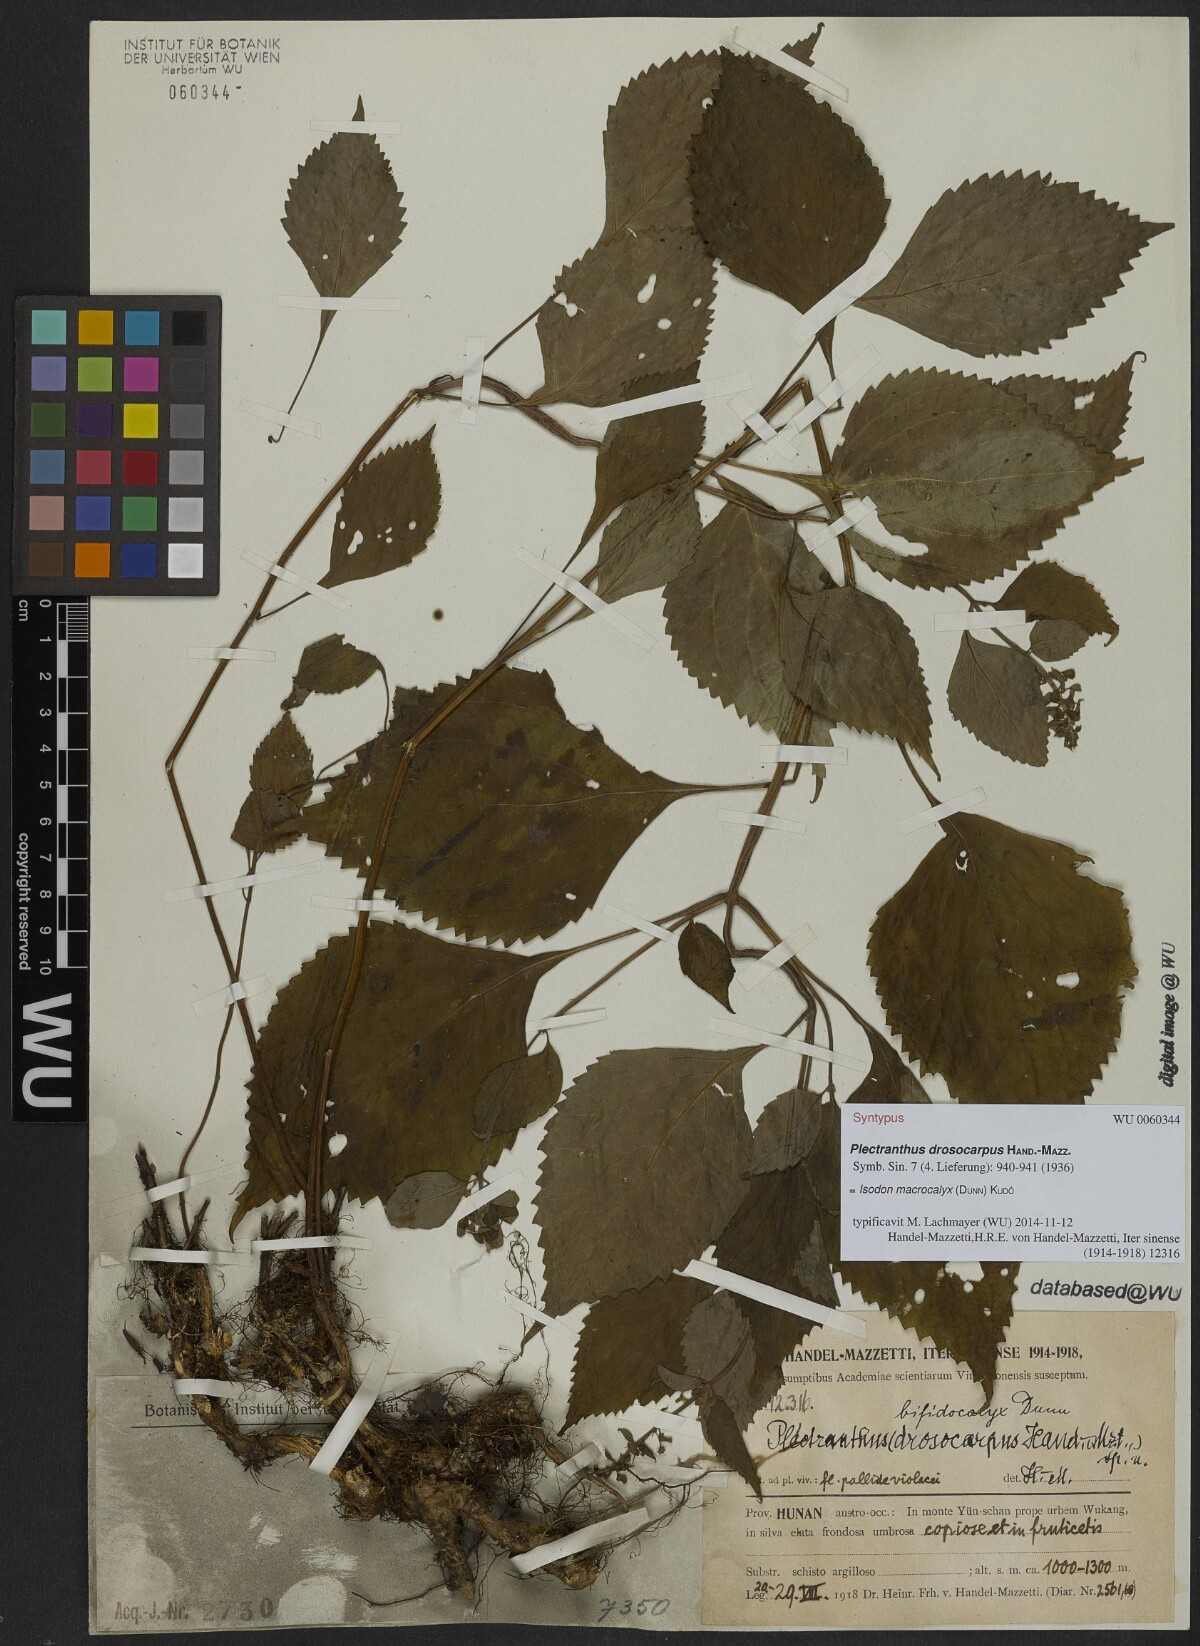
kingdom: Plantae
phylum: Tracheophyta
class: Magnoliopsida
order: Lamiales
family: Lamiaceae
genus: Isodon
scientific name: Isodon macrocalyx
